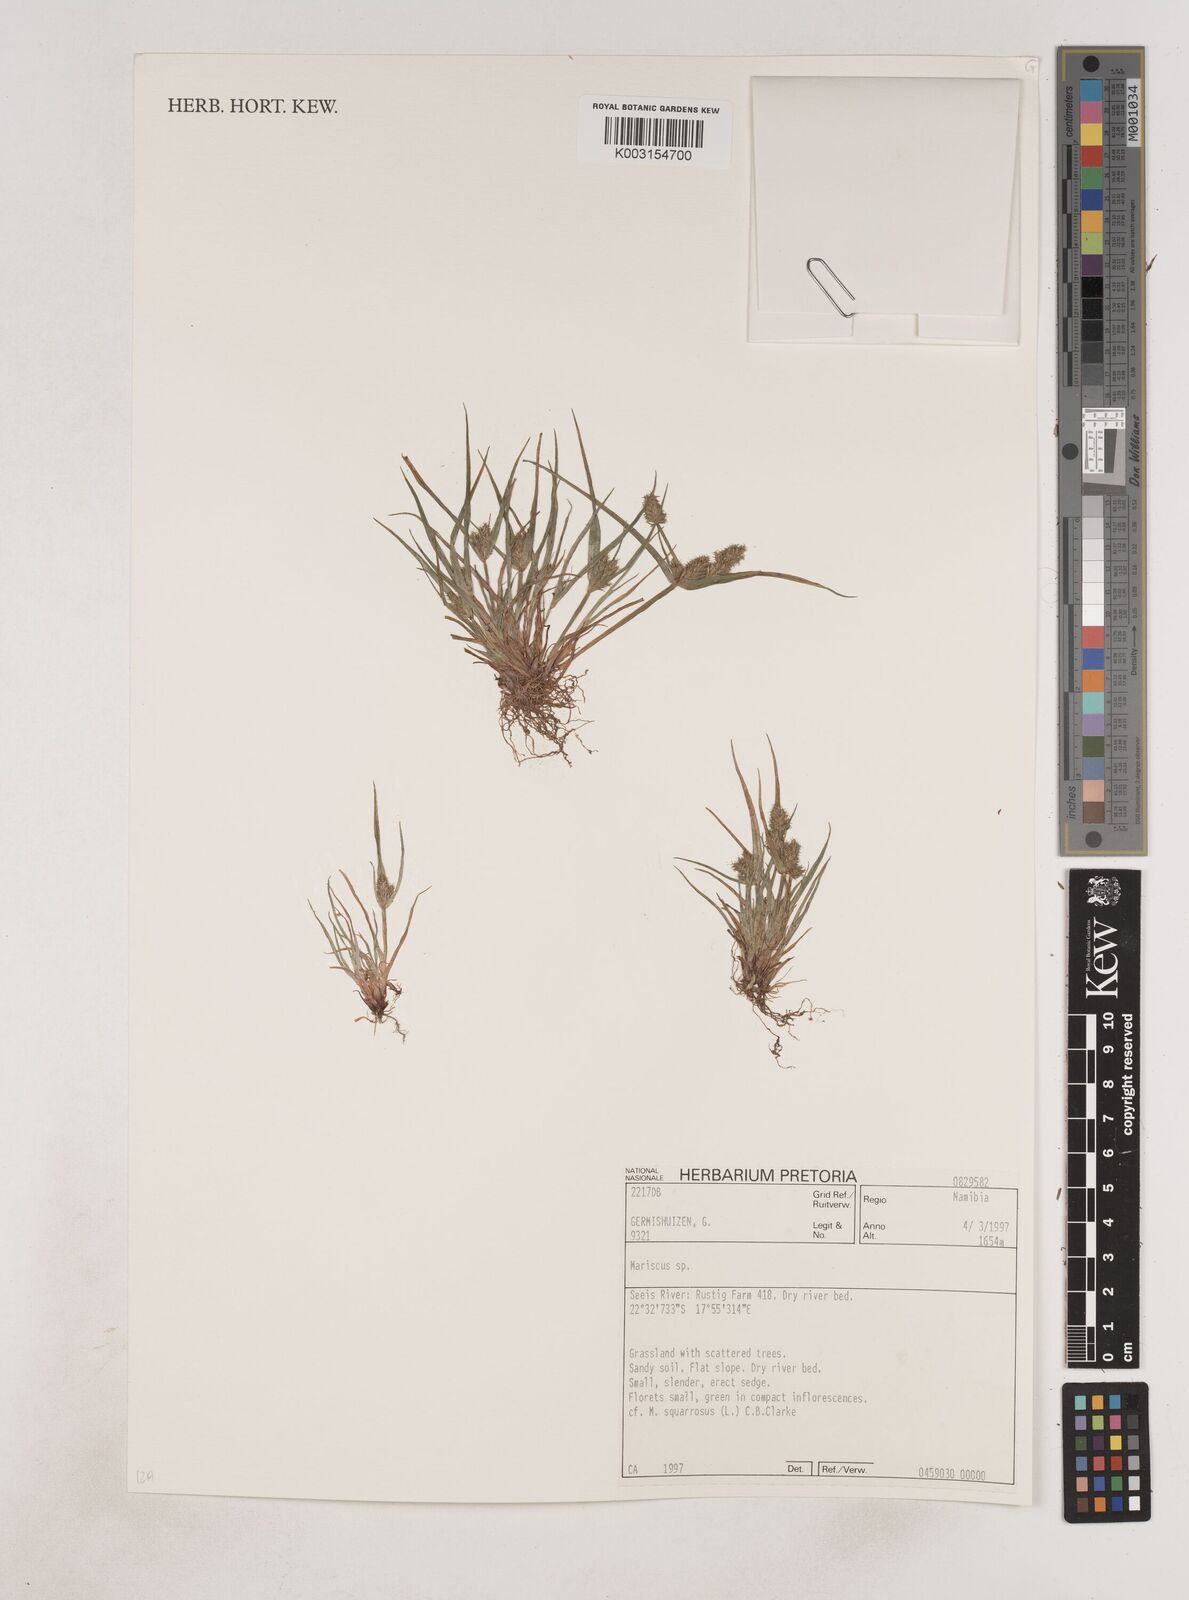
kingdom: Plantae
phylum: Tracheophyta
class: Liliopsida
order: Poales
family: Cyperaceae
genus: Cyperus
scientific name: Cyperus
